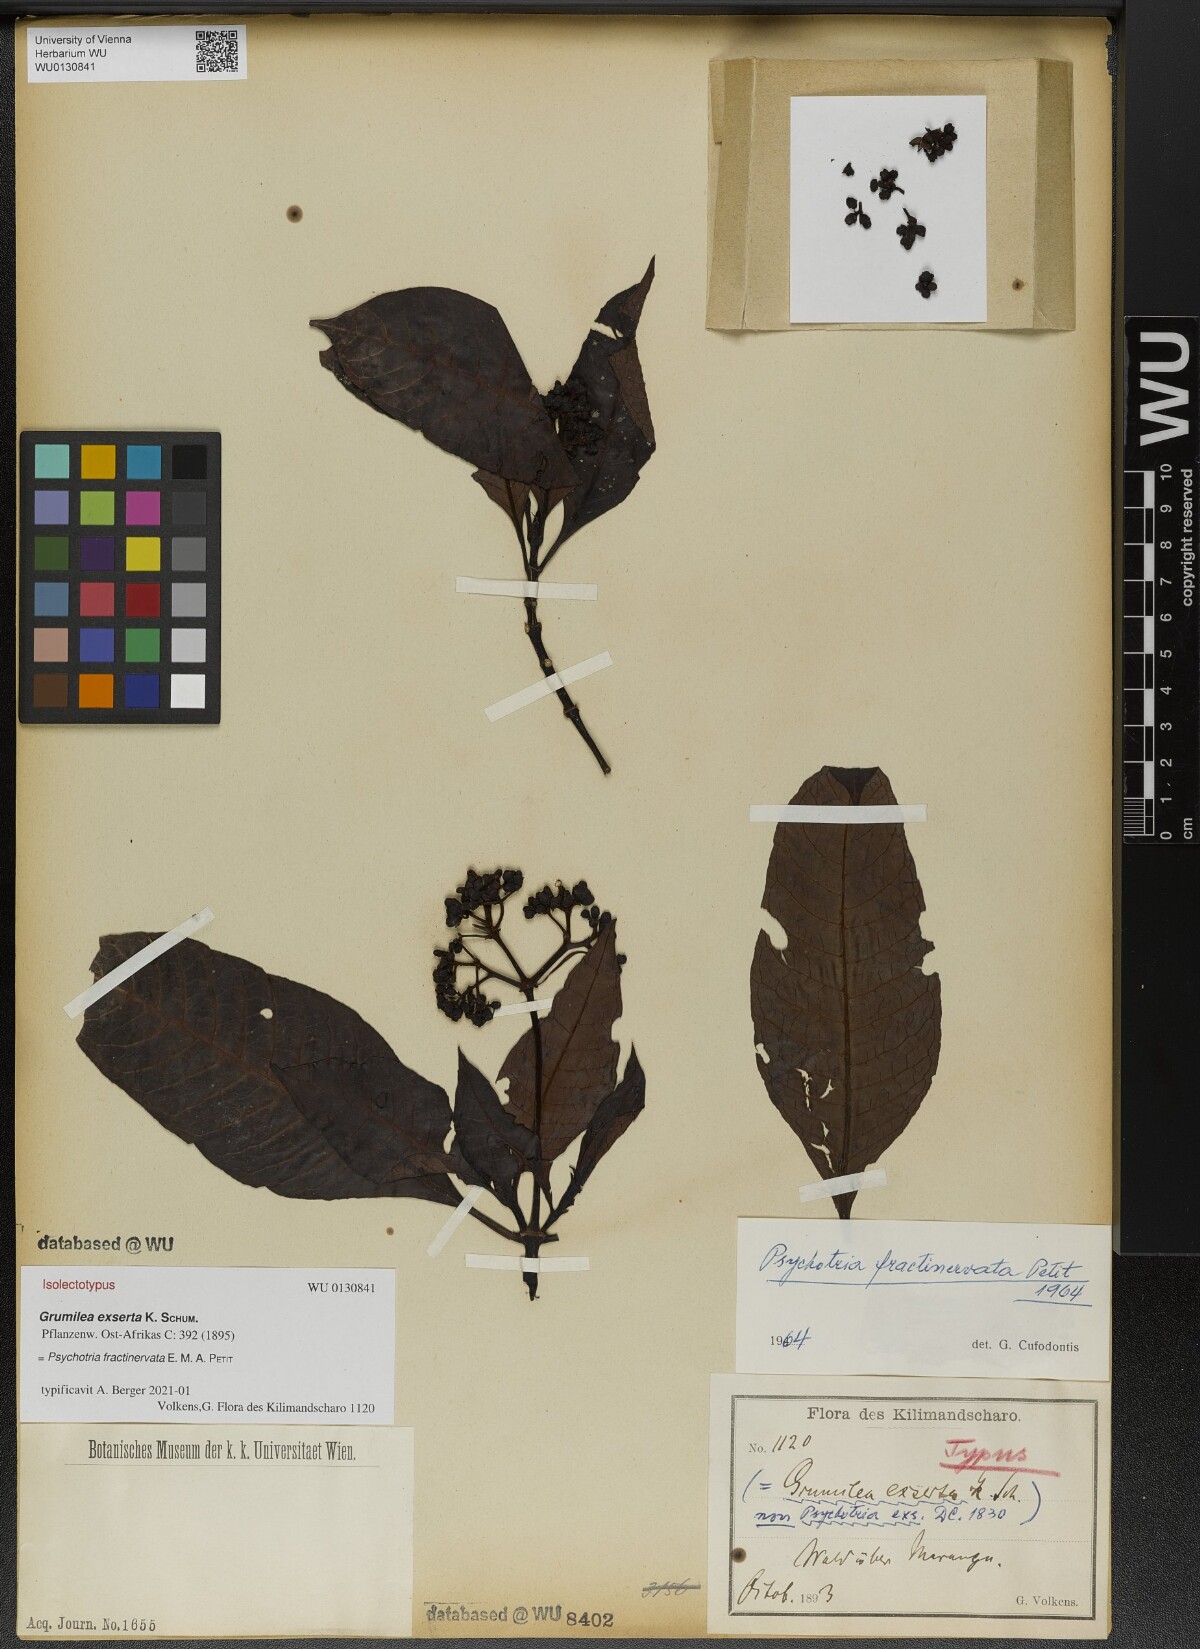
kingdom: Plantae
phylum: Tracheophyta
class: Magnoliopsida
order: Gentianales
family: Rubiaceae
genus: Psychotria
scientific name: Psychotria fractinervata
